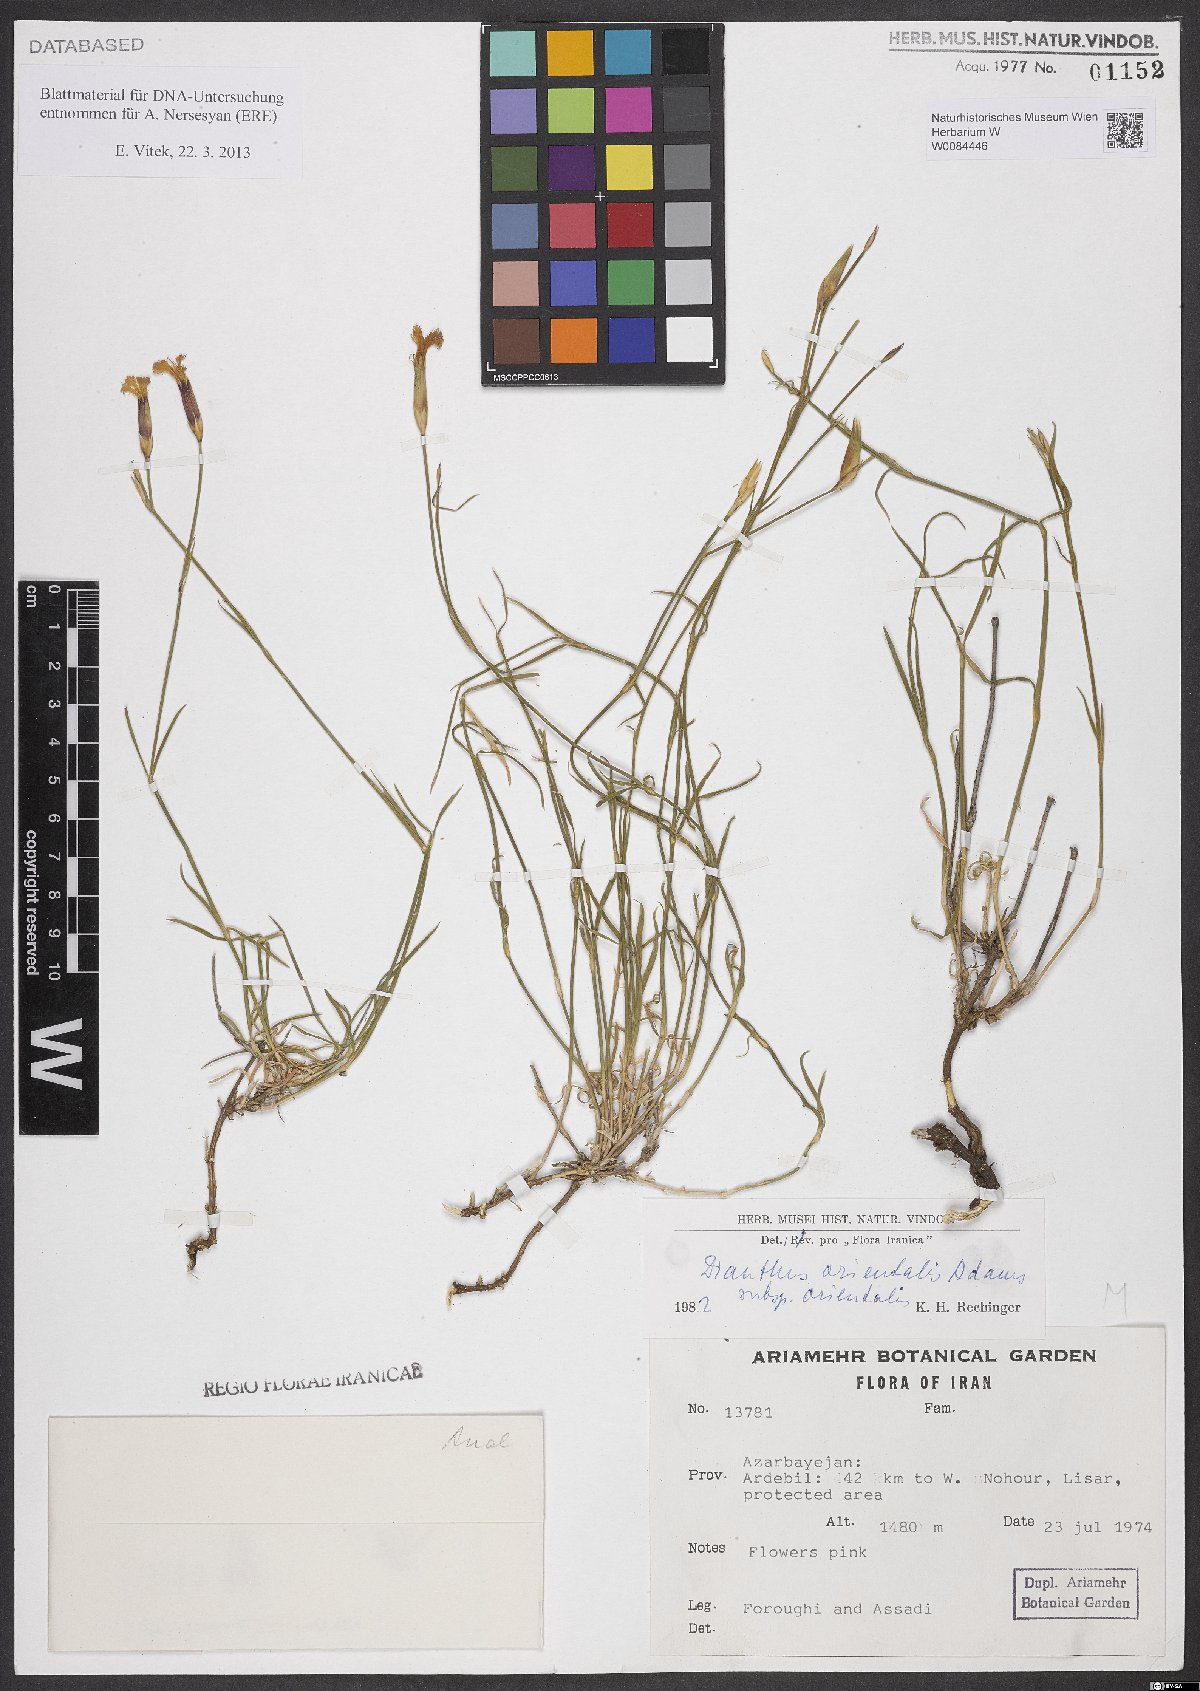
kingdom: Plantae
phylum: Tracheophyta
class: Magnoliopsida
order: Caryophyllales
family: Caryophyllaceae
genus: Dianthus
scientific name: Dianthus orientalis
